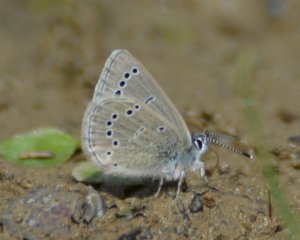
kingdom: Animalia
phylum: Arthropoda
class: Insecta
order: Lepidoptera
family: Lycaenidae
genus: Glaucopsyche
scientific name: Glaucopsyche lygdamus
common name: Silvery Blue
